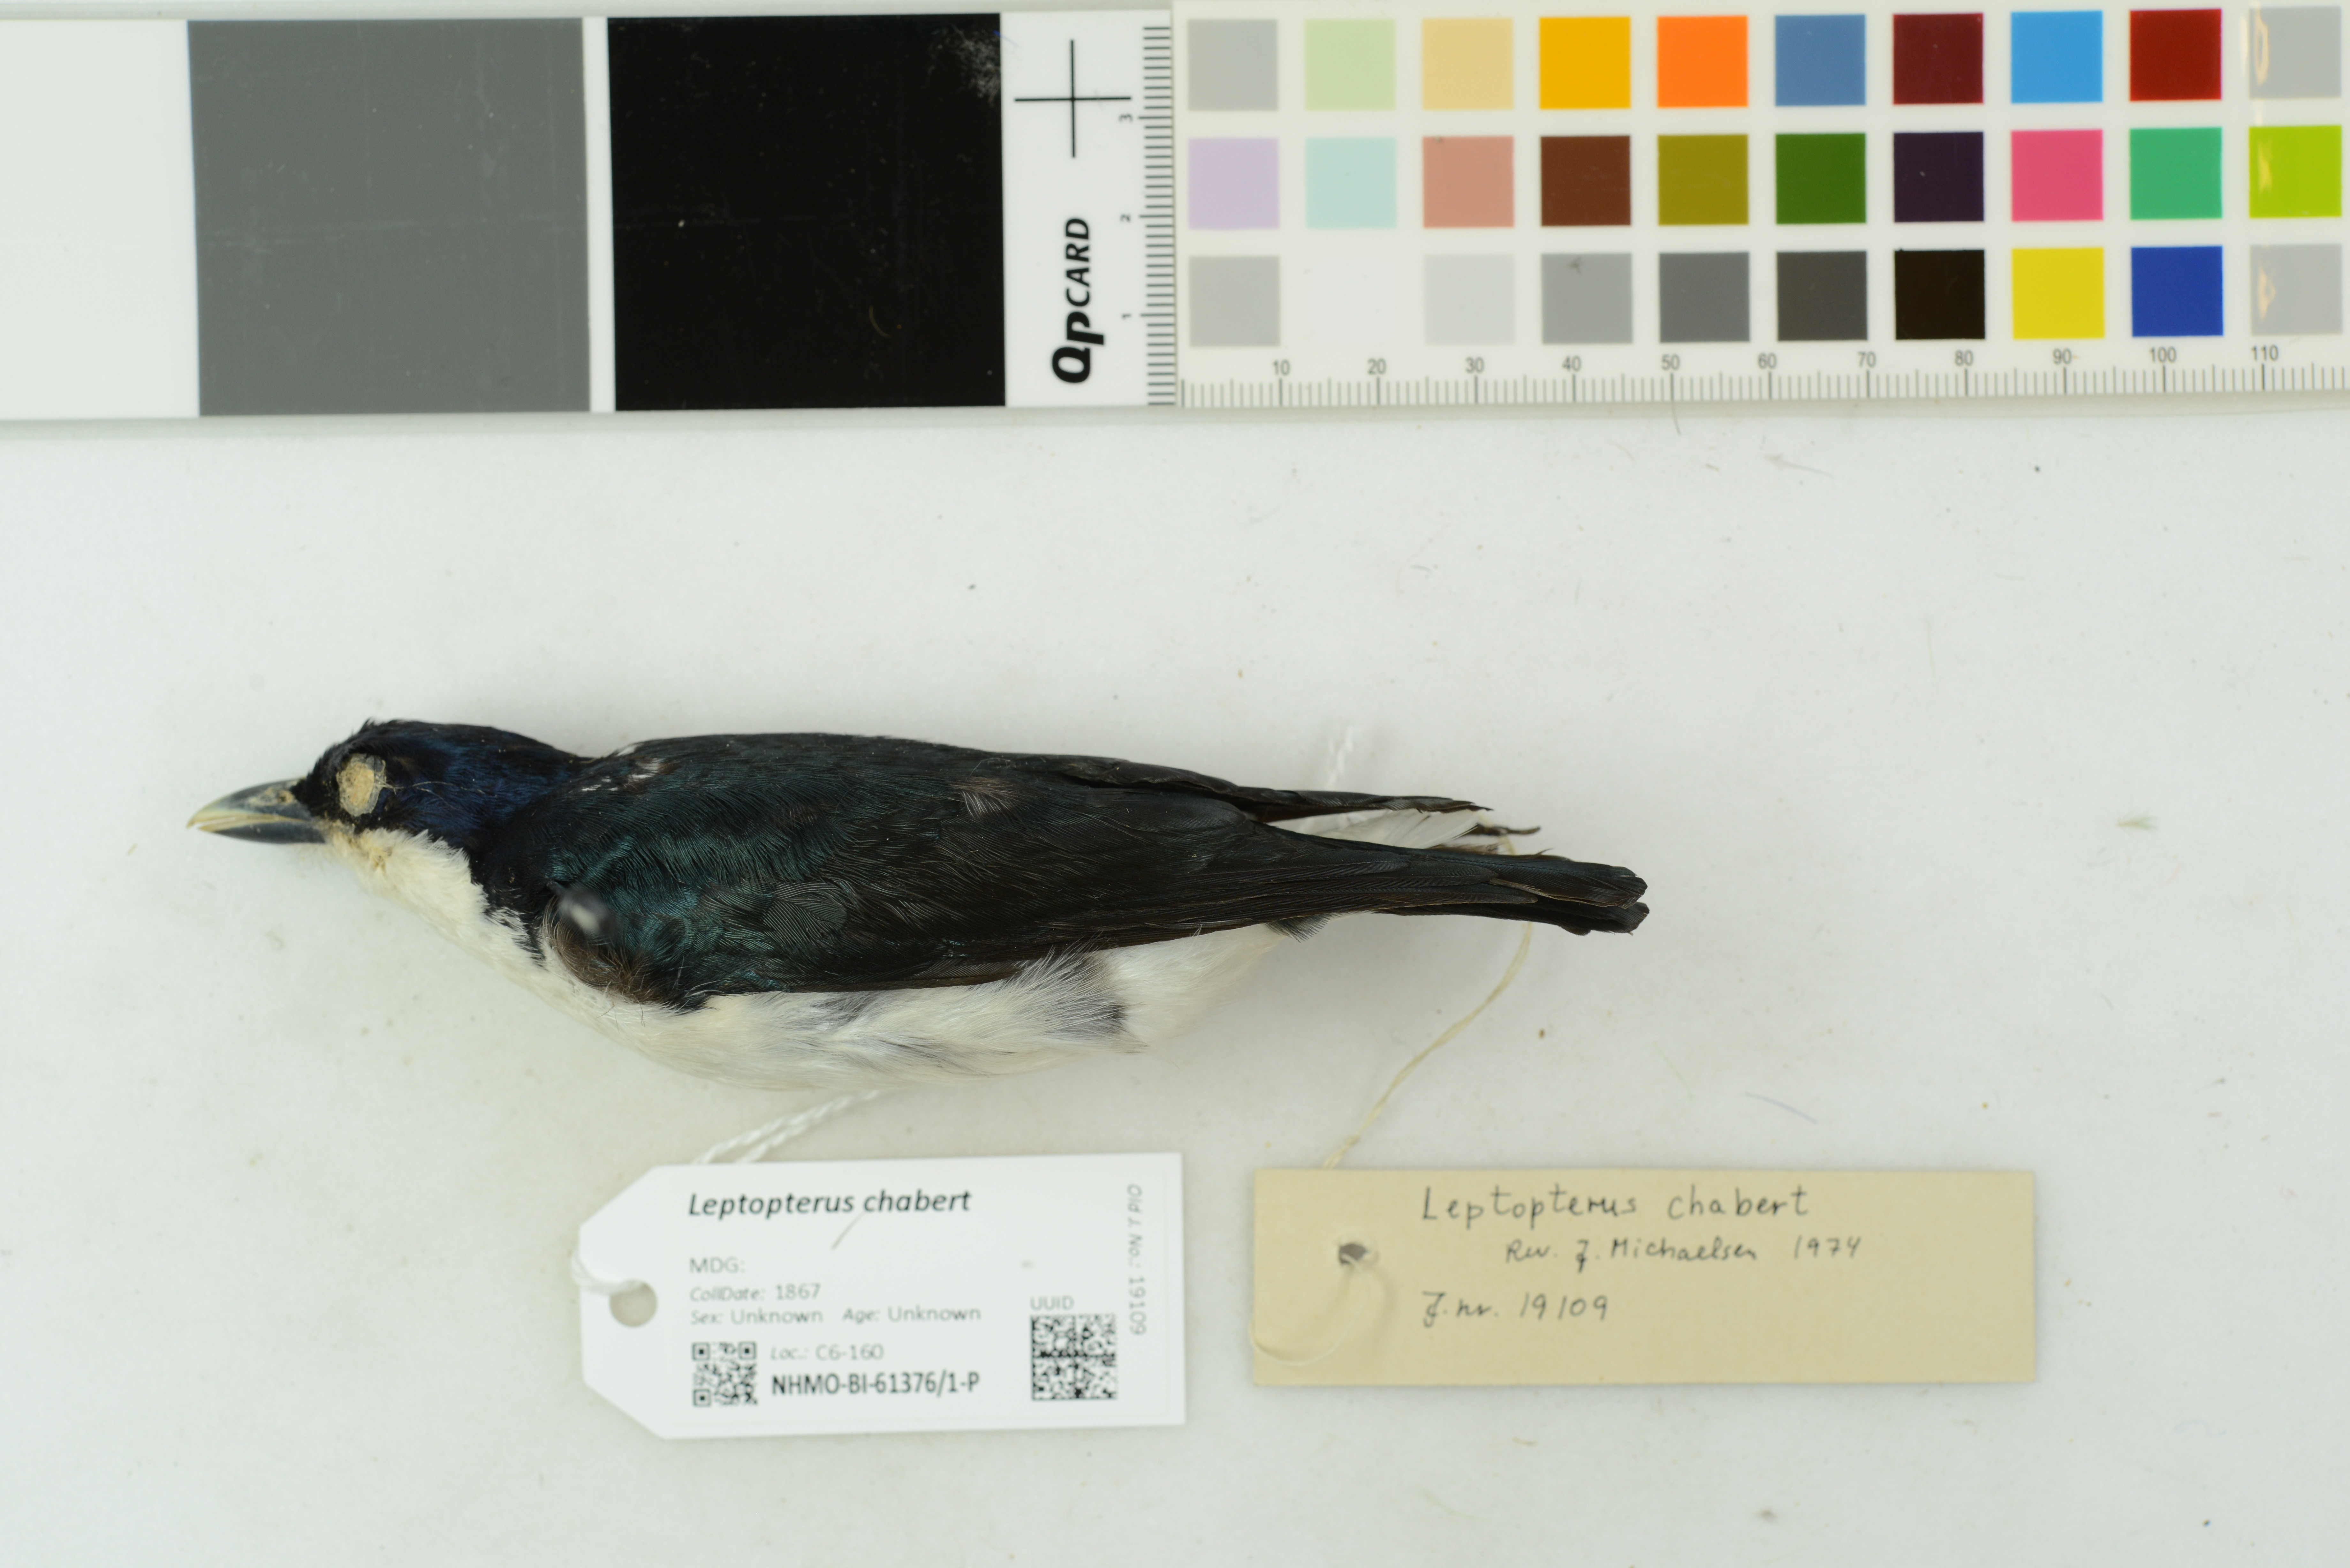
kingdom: Animalia
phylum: Chordata
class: Aves
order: Passeriformes
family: Vangidae
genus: Leptopterus
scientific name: Leptopterus chabert
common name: Chabert vanga
